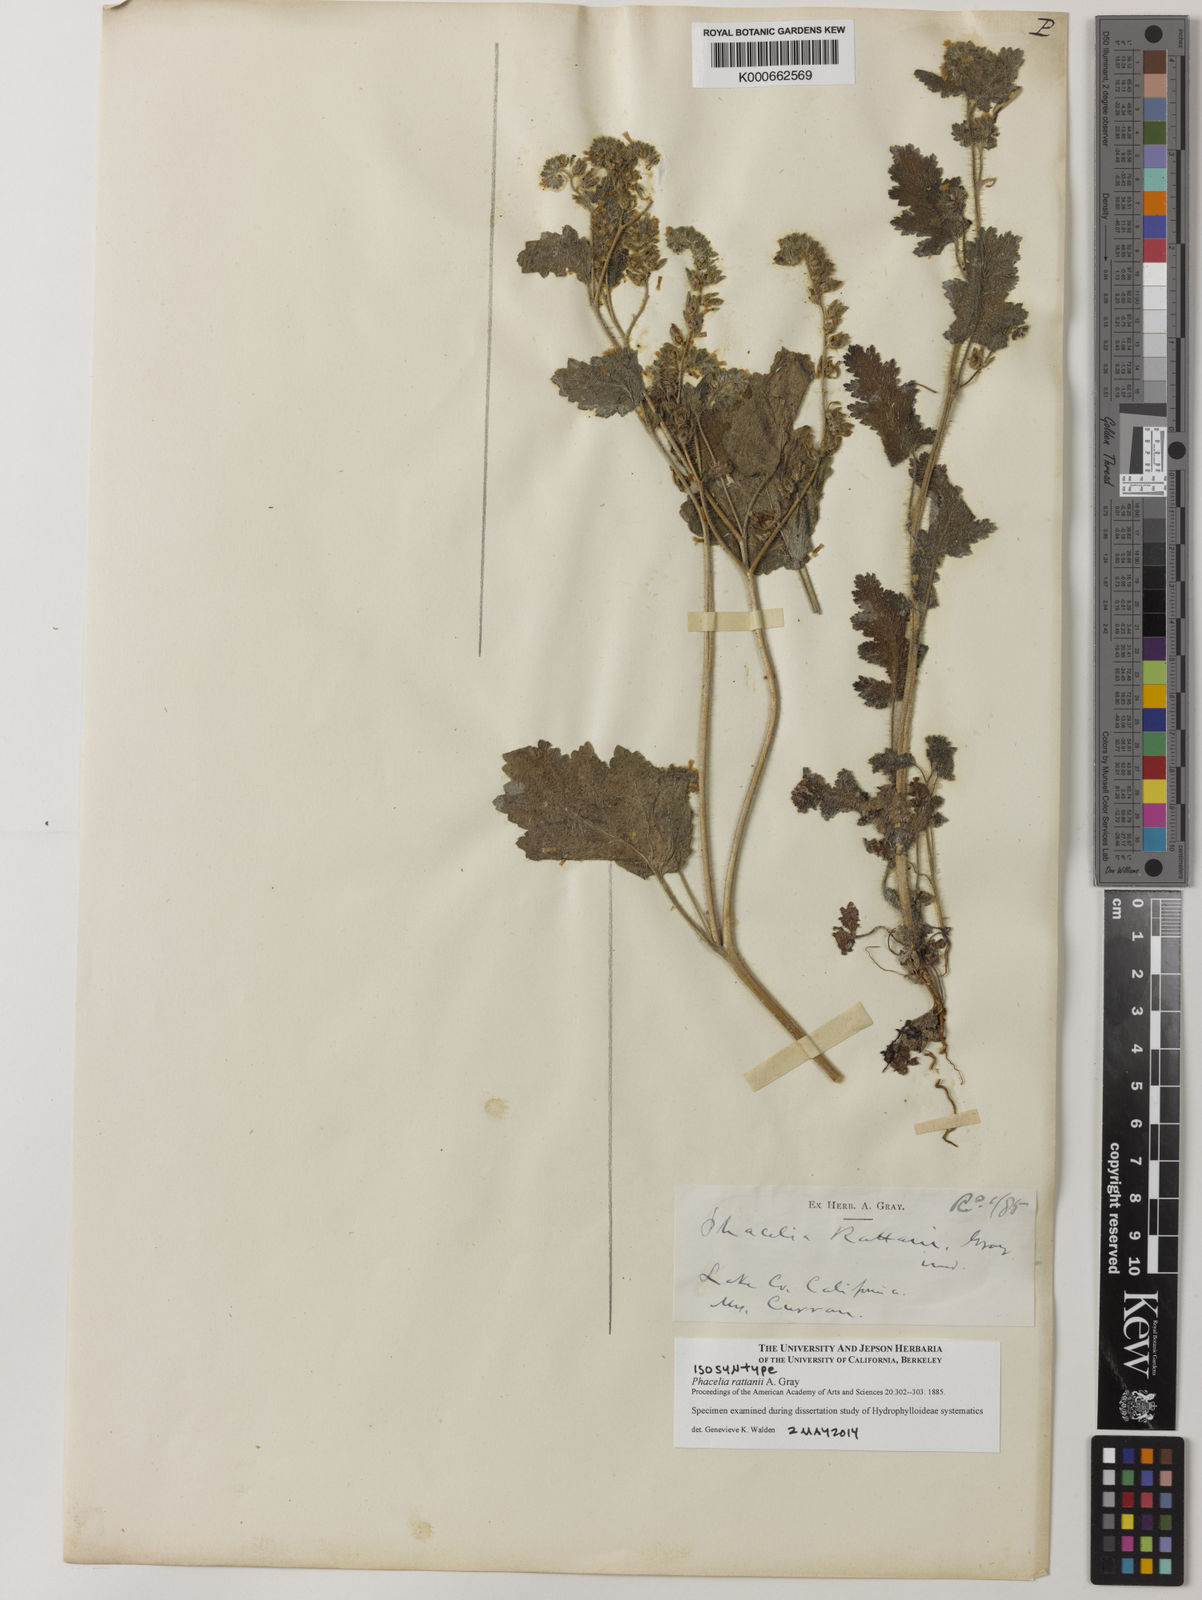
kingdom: Plantae
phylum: Tracheophyta
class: Magnoliopsida
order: Boraginales
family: Hydrophyllaceae
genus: Phacelia
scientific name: Phacelia rattanii
